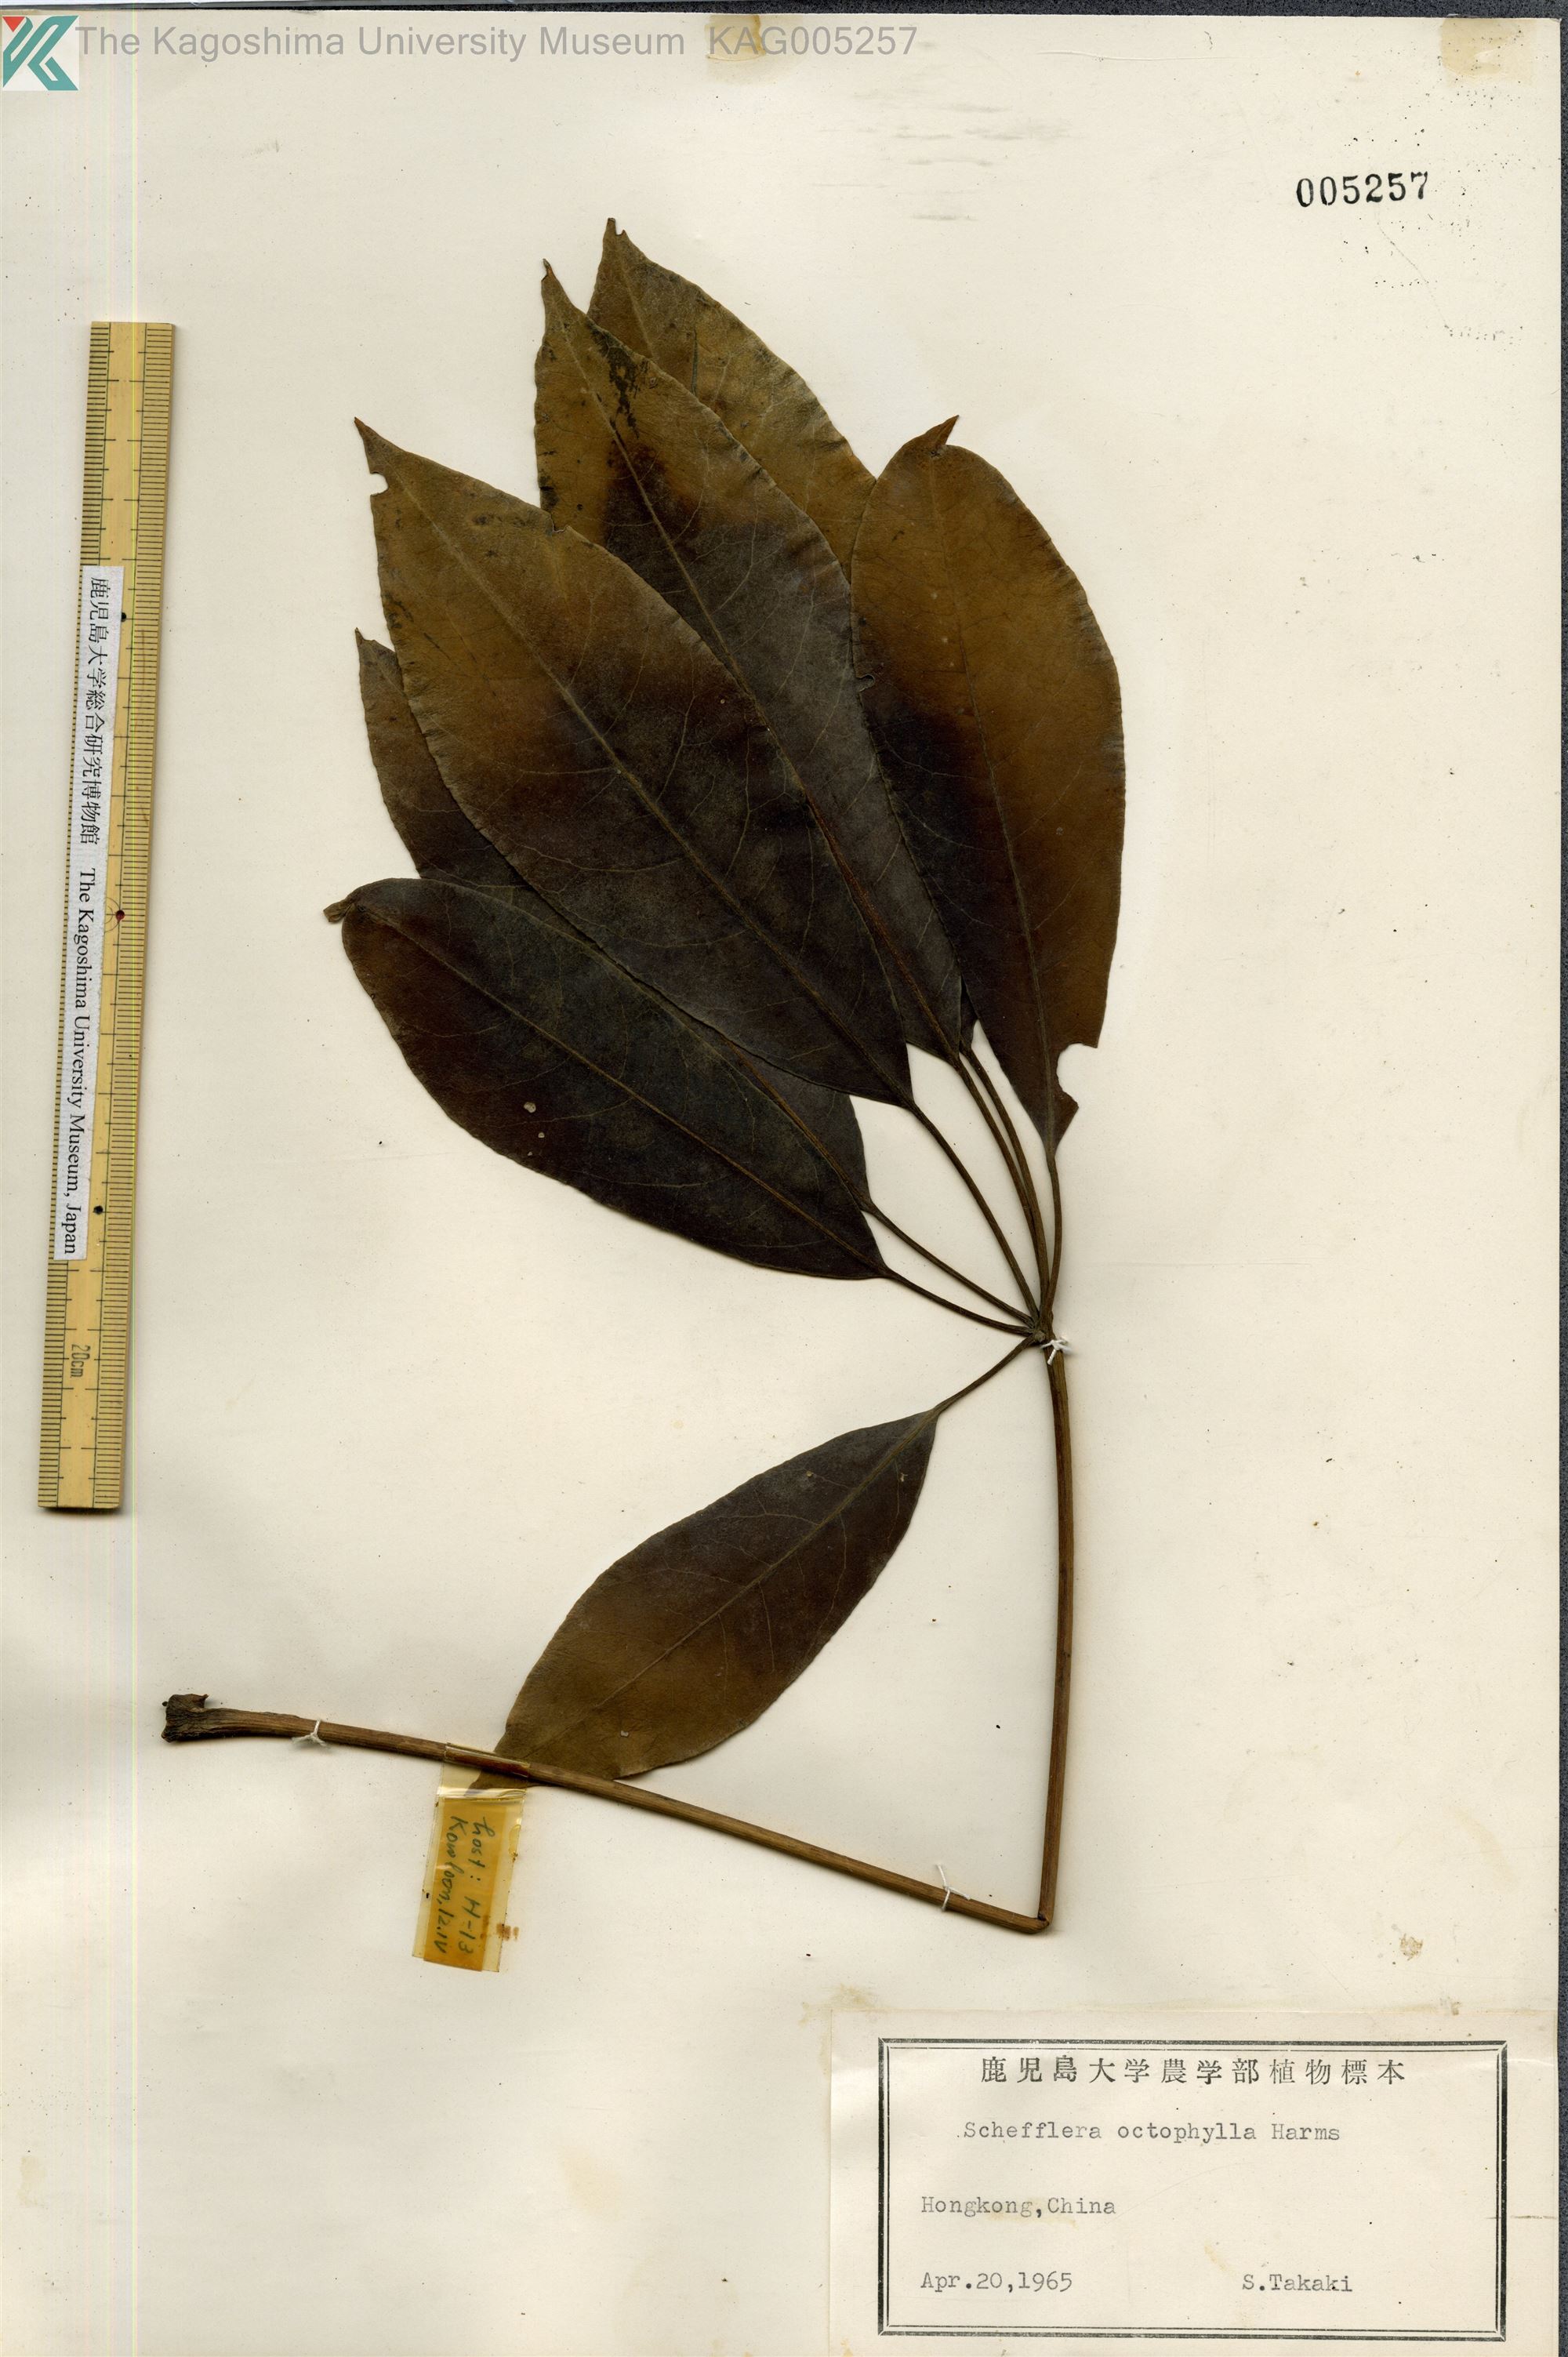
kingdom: Plantae
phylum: Tracheophyta
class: Magnoliopsida
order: Apiales
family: Araliaceae
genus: Heptapleurum
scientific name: Heptapleurum heptaphyllum
